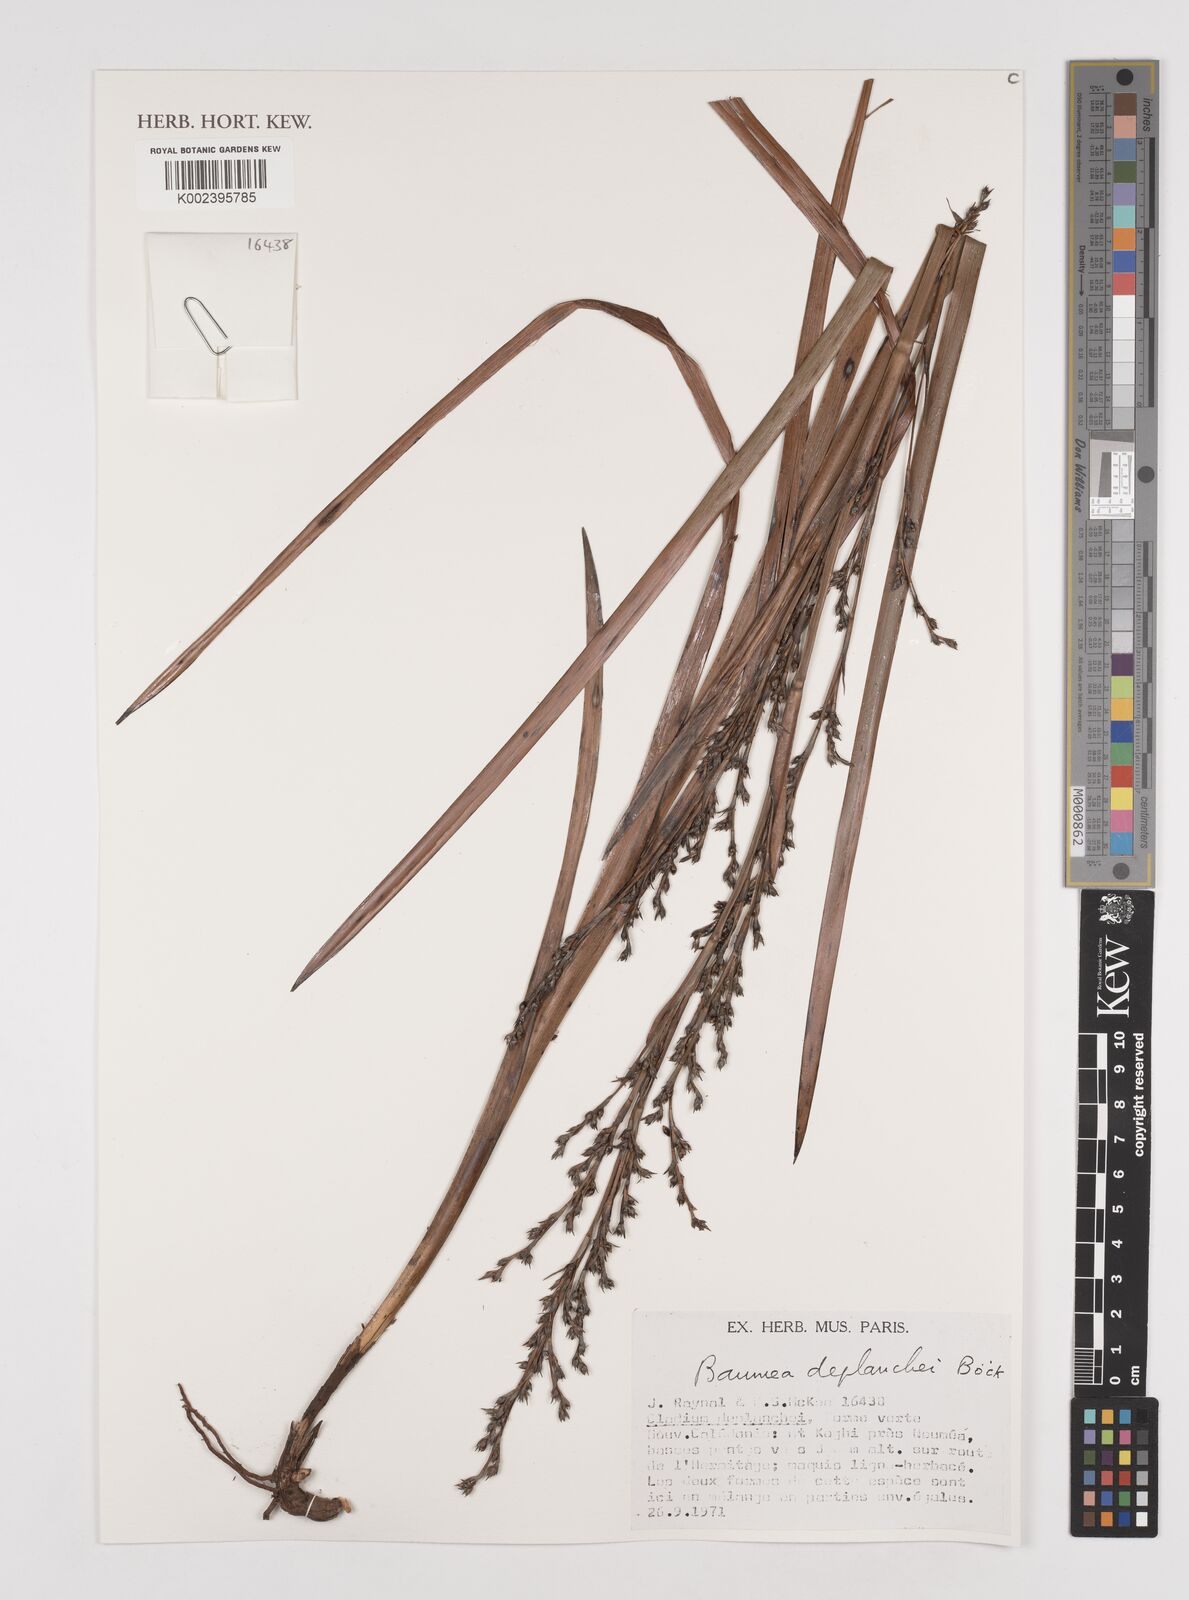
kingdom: Plantae
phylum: Tracheophyta
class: Liliopsida
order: Poales
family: Cyperaceae
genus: Machaerina
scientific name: Machaerina deplanchei
